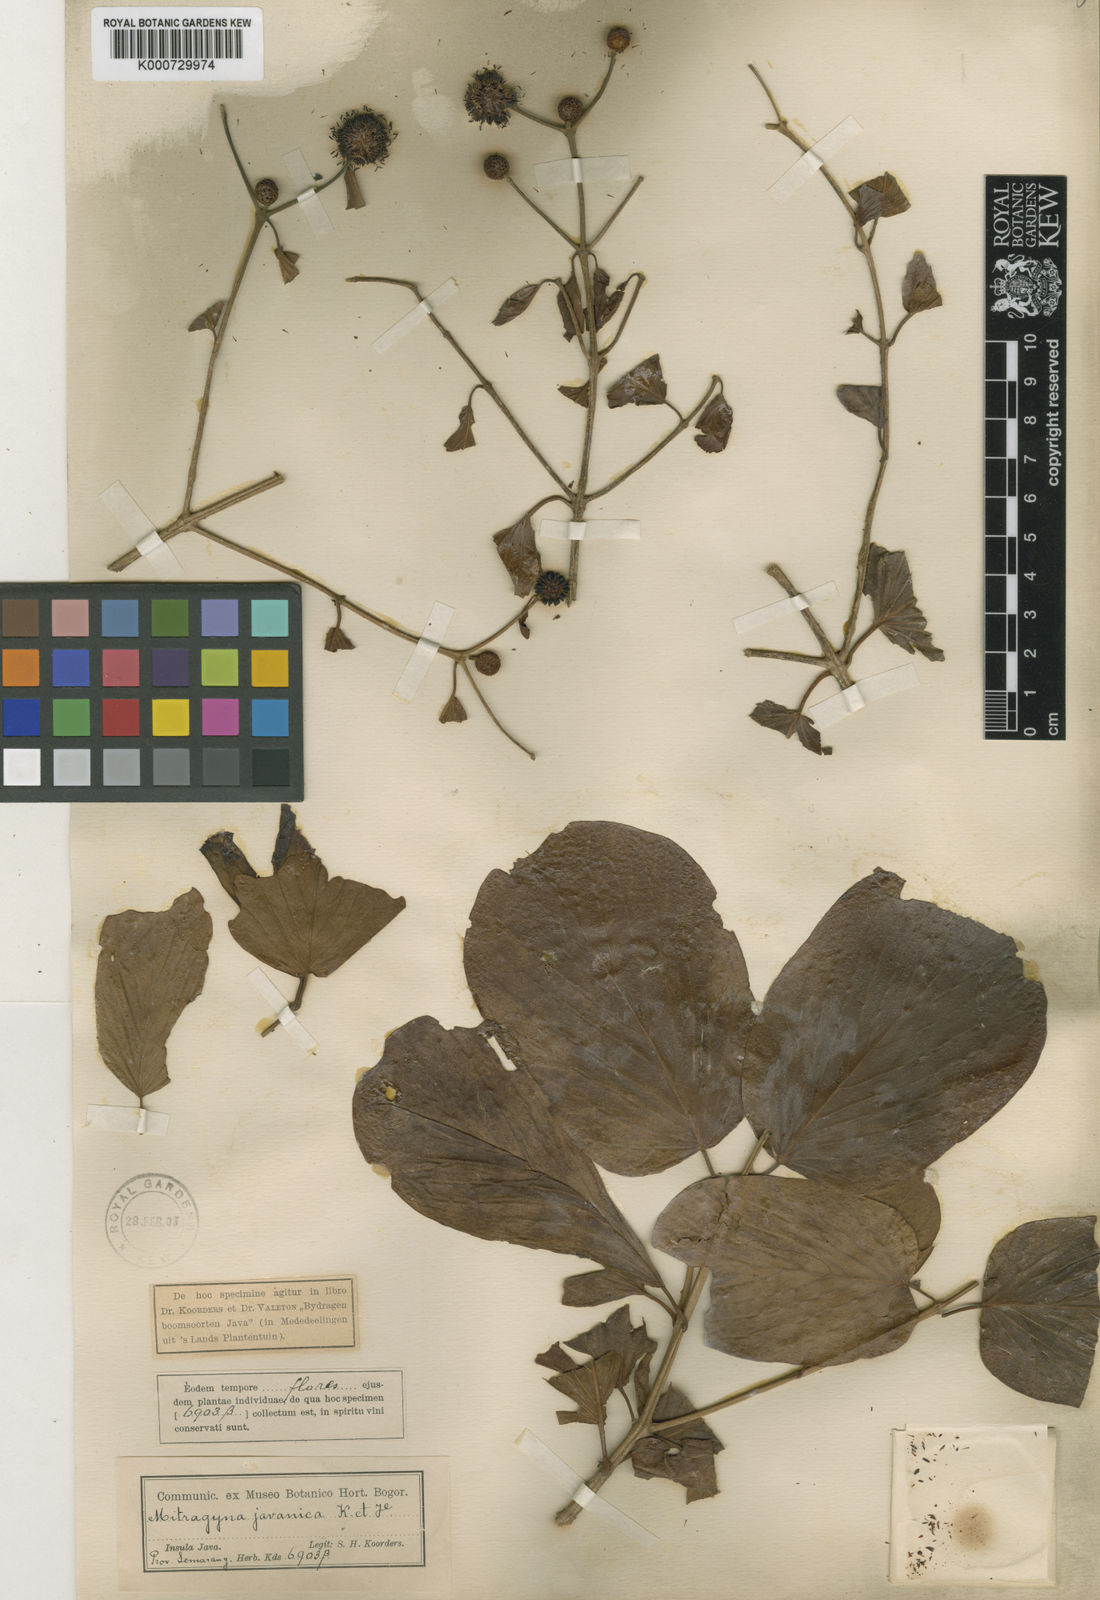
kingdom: Plantae
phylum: Tracheophyta
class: Magnoliopsida
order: Gentianales
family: Rubiaceae
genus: Mitragyna
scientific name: Mitragyna
